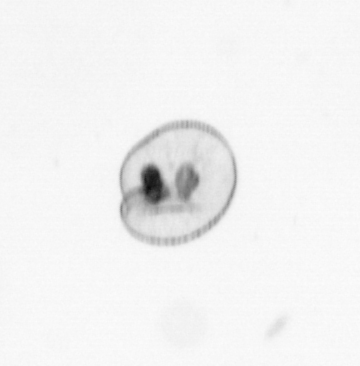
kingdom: Chromista
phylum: Myzozoa
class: Dinophyceae
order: Noctilucales
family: Noctilucaceae
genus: Noctiluca
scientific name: Noctiluca scintillans
